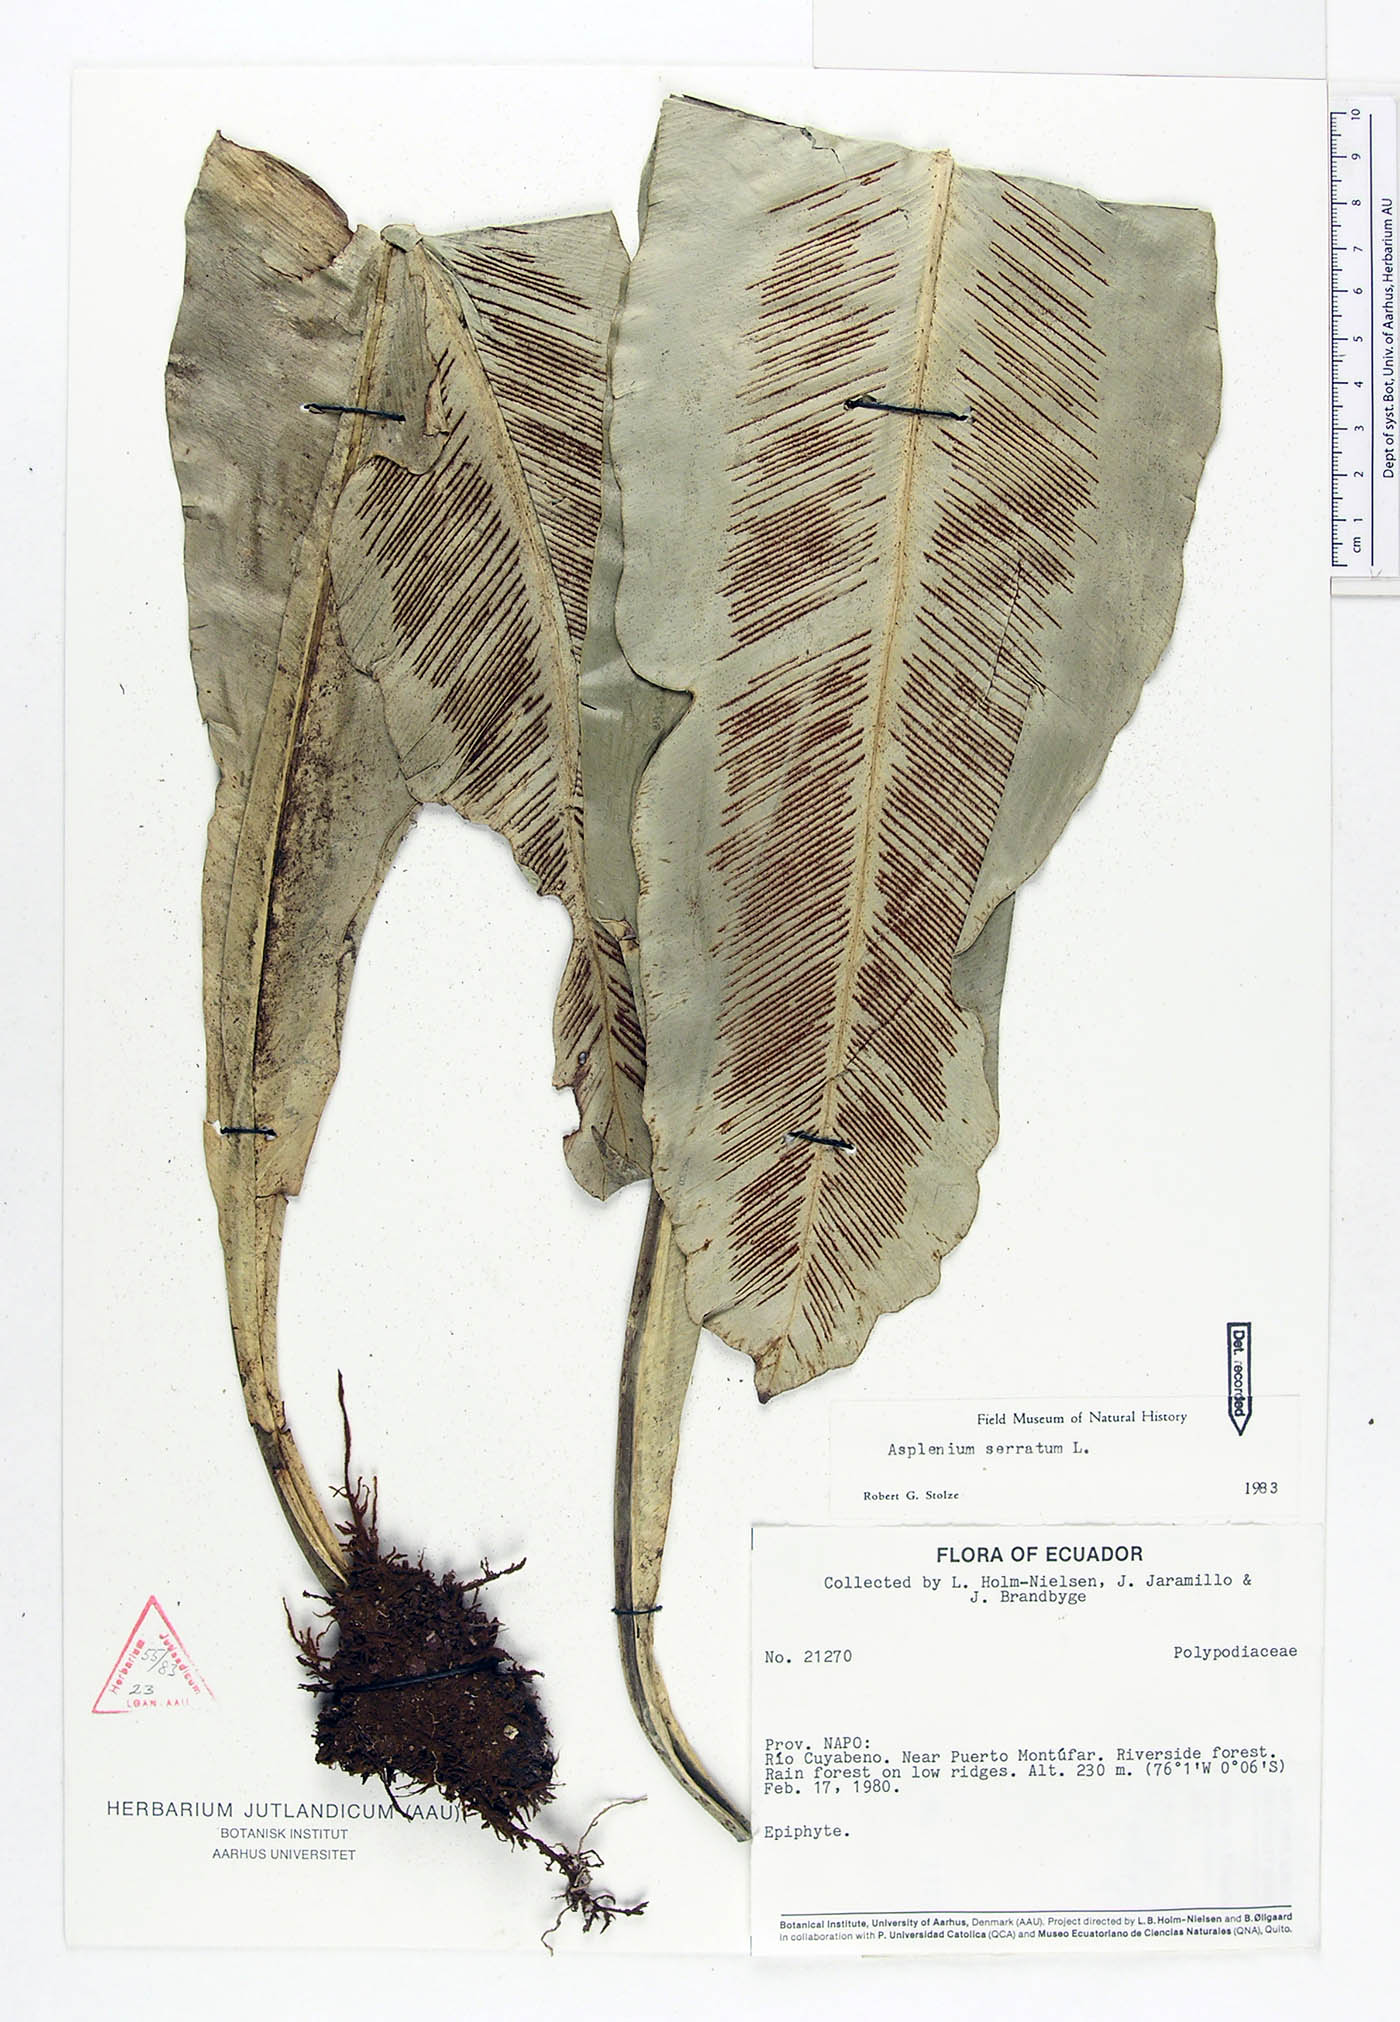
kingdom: Plantae
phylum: Tracheophyta
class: Polypodiopsida
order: Polypodiales
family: Aspleniaceae
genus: Asplenium
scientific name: Asplenium serratum
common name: Wild birdnest fern
